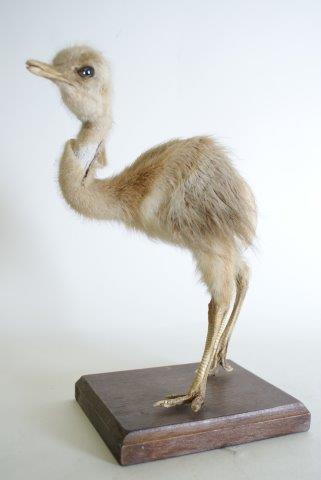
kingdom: Animalia
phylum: Chordata
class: Aves
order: Rheiformes
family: Rheidae
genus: Rhea
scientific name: Rhea americana
